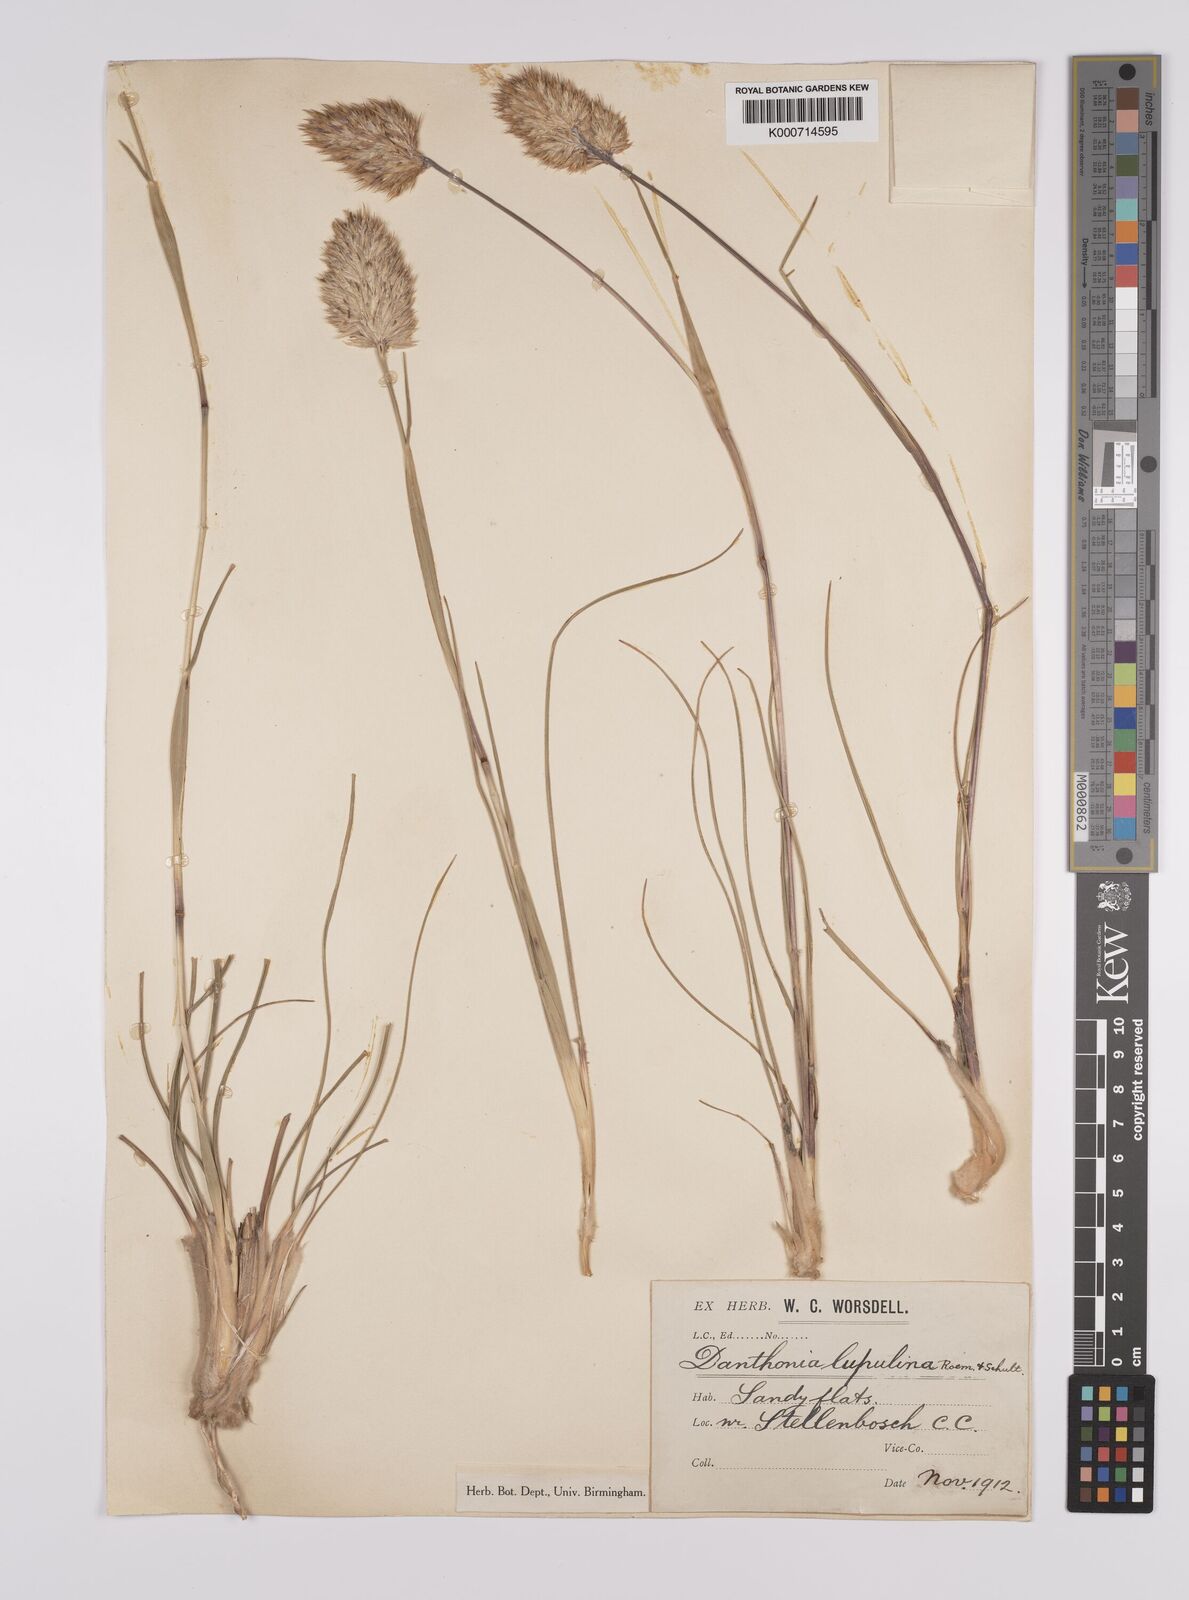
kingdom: Plantae
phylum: Tracheophyta
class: Liliopsida
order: Poales
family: Poaceae
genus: Rytidosperma
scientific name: Rytidosperma
